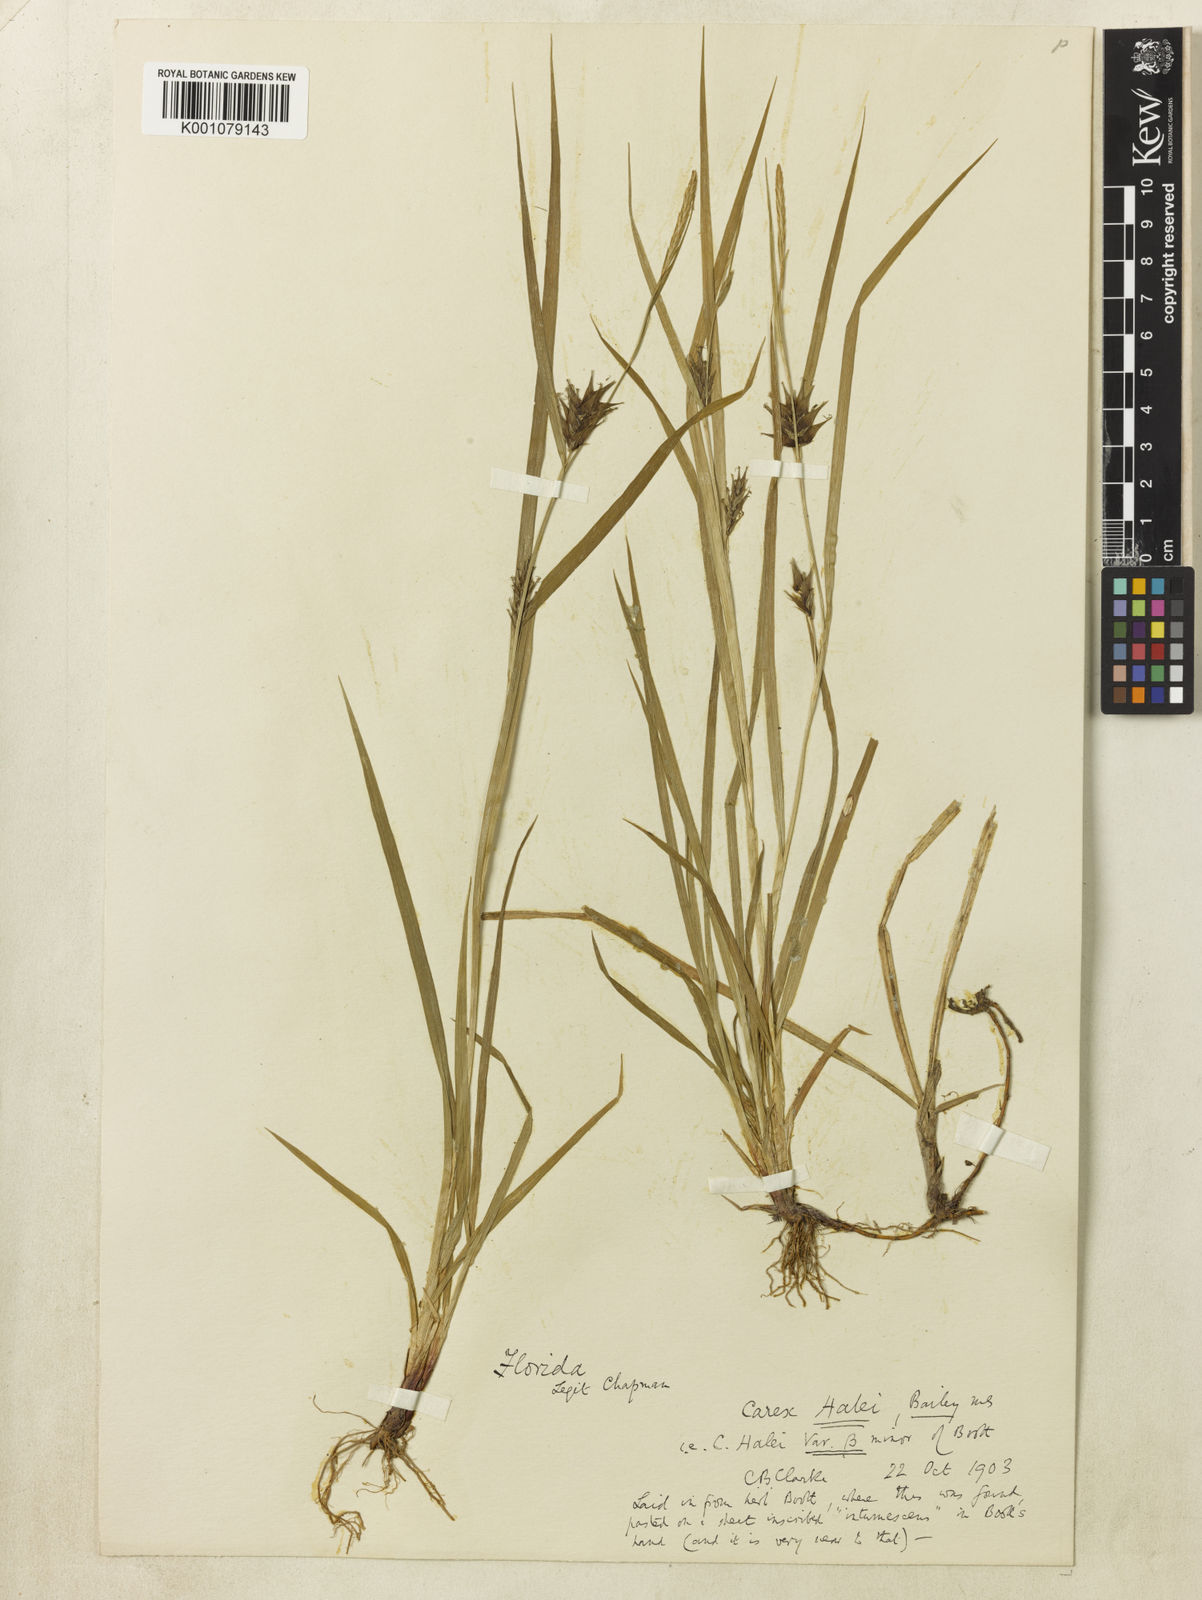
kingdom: Plantae
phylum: Tracheophyta
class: Liliopsida
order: Poales
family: Cyperaceae
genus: Carex
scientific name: Carex louisianica
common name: Louisiana sedge
